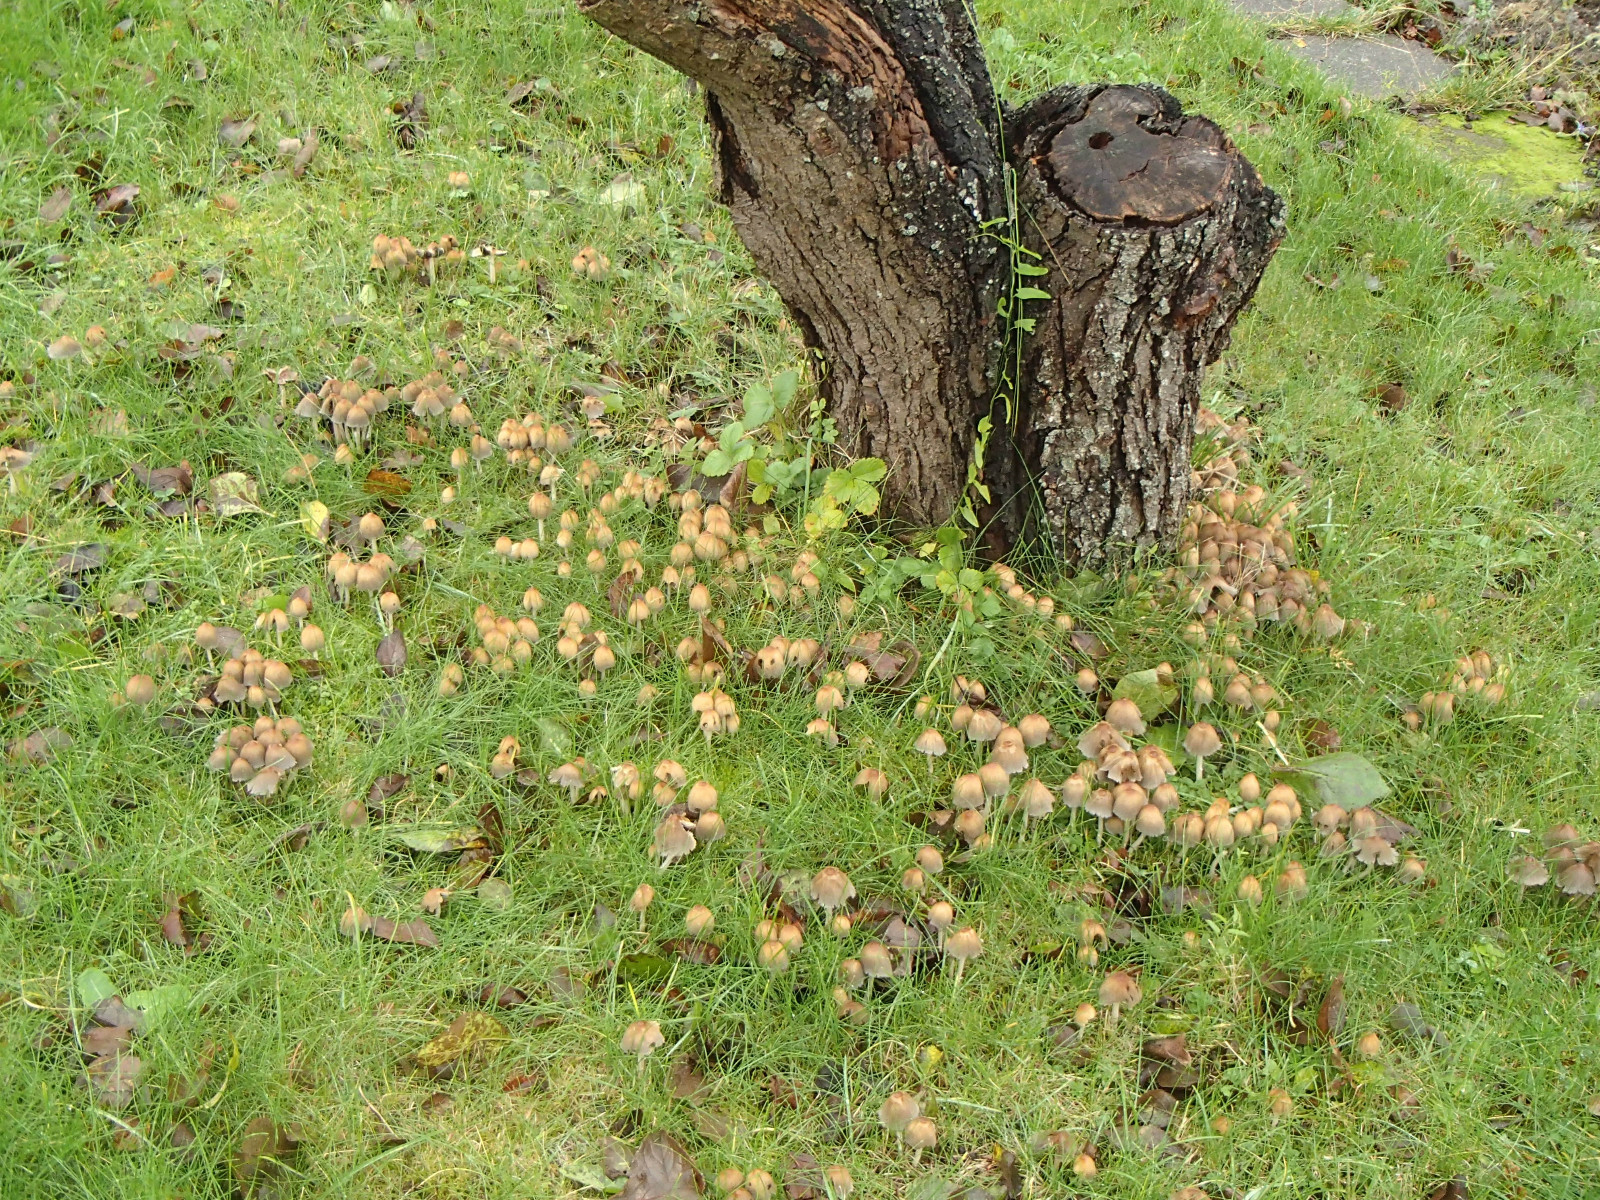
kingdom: Fungi
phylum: Basidiomycota
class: Agaricomycetes
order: Agaricales
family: Psathyrellaceae
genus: Coprinellus
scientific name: Coprinellus
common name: blækhat
